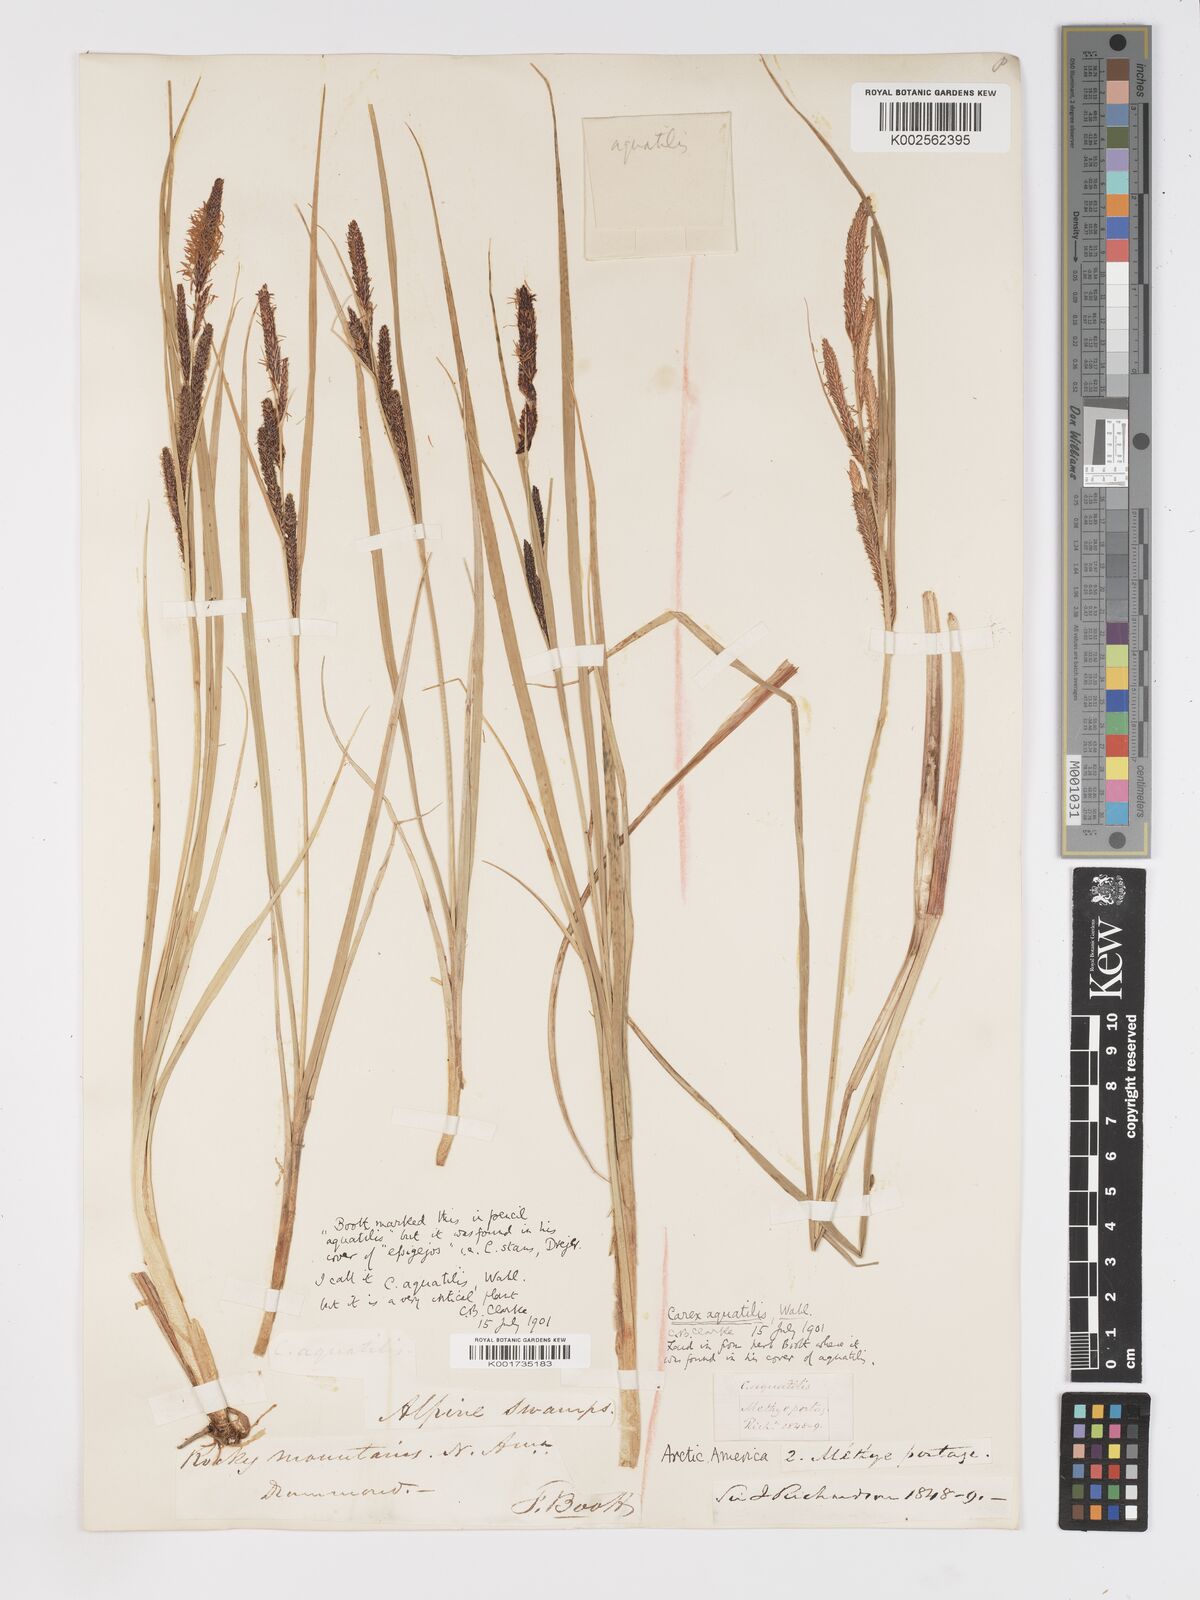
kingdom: Plantae
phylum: Tracheophyta
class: Liliopsida
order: Poales
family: Cyperaceae
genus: Carex
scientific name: Carex aquatilis
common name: Water sedge
